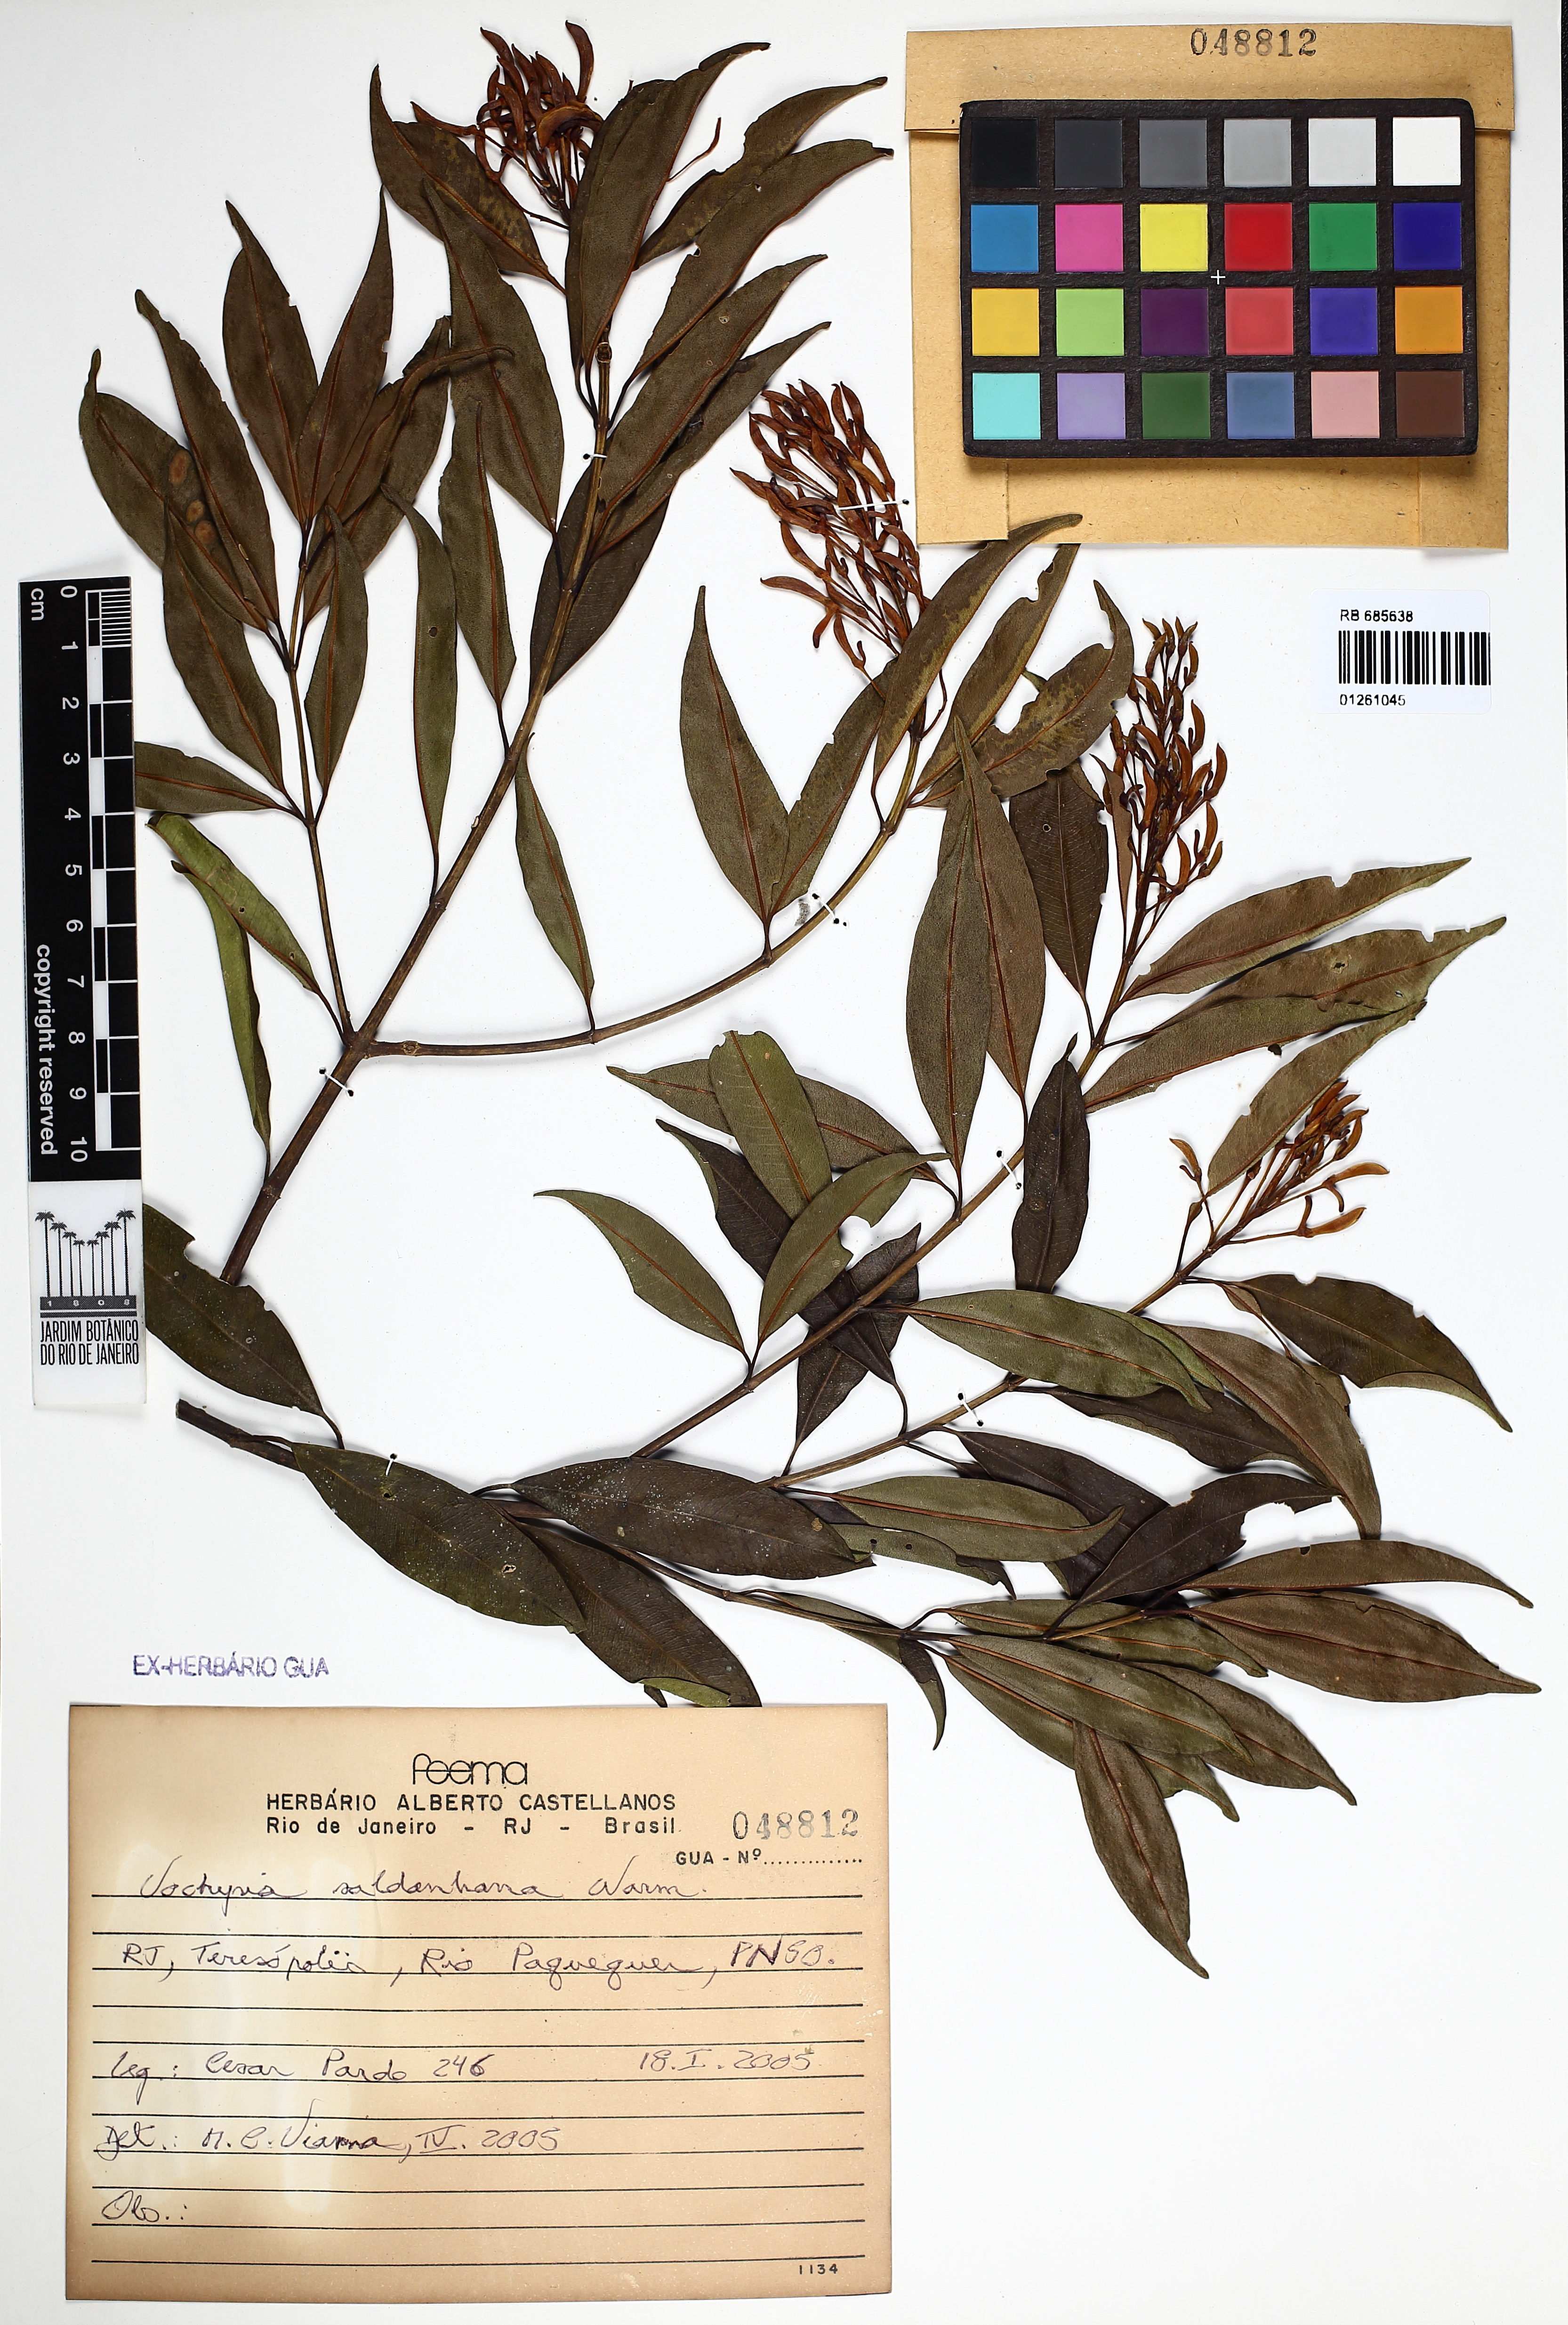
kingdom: Plantae
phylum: Tracheophyta
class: Magnoliopsida
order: Myrtales
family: Vochysiaceae
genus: Vochysia
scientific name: Vochysia saldanhana
